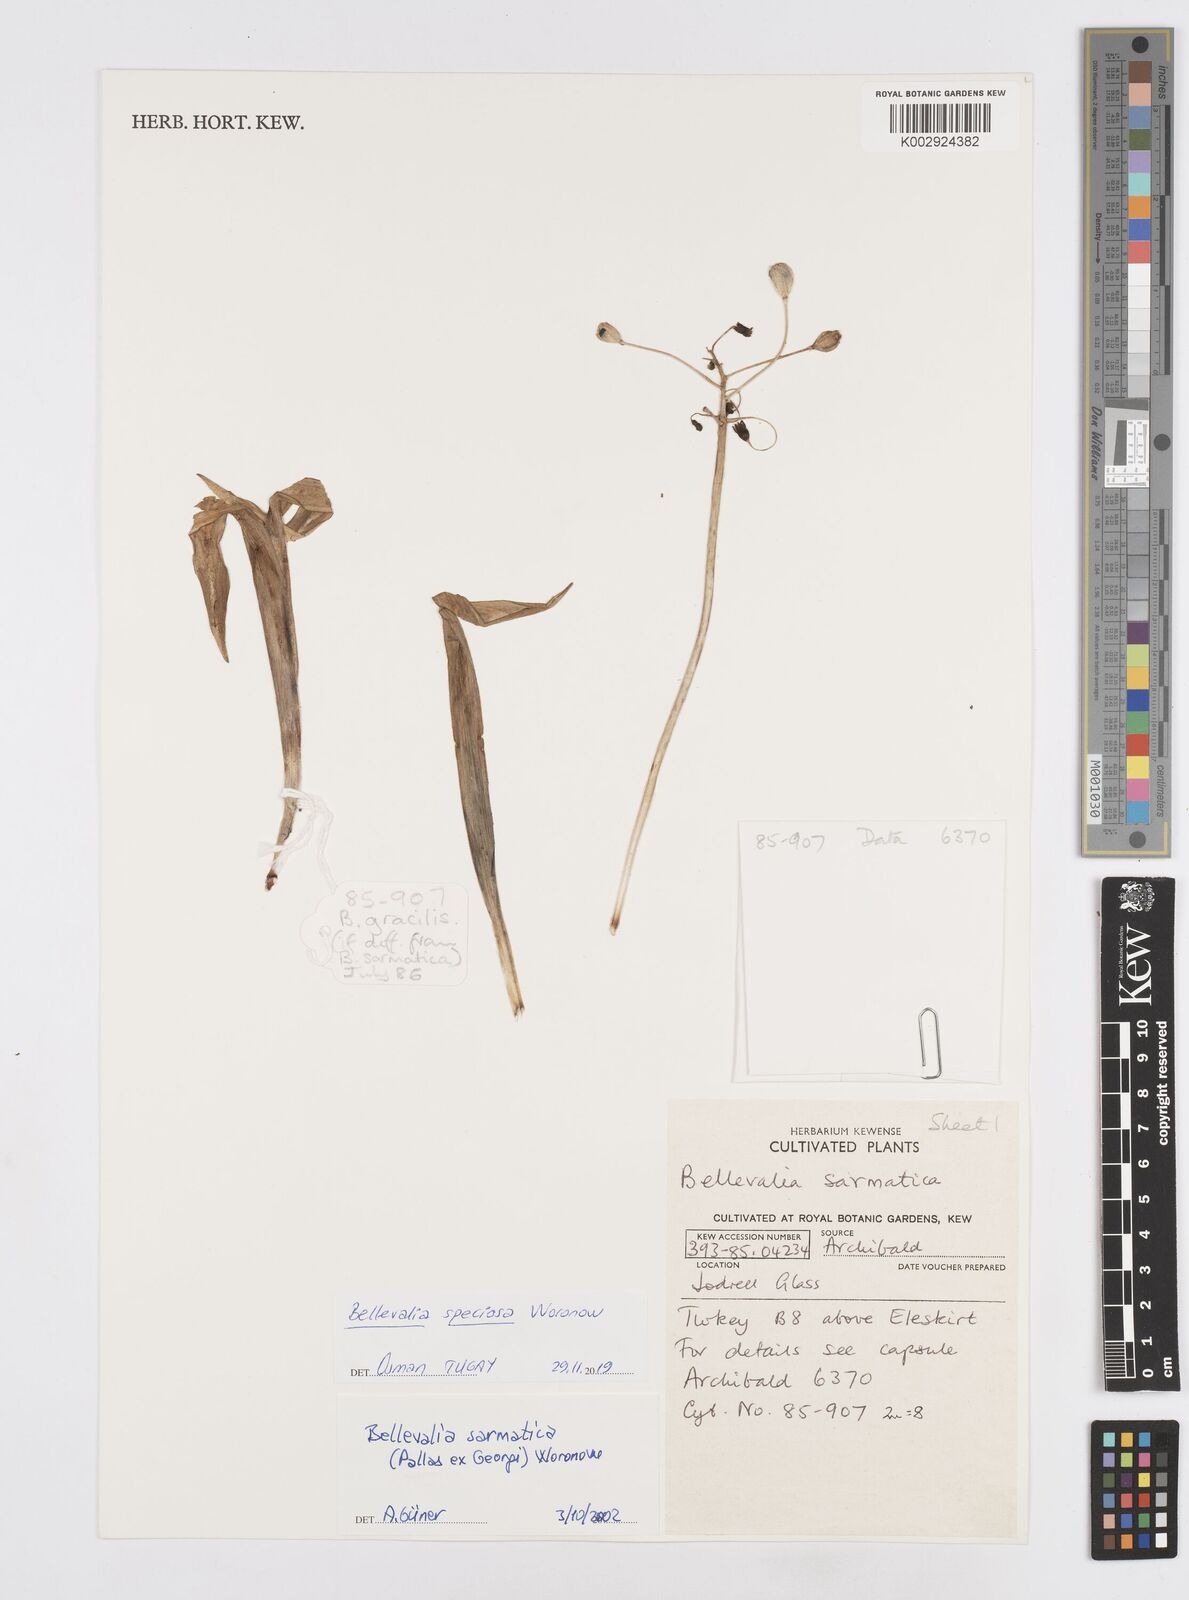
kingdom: Plantae
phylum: Tracheophyta
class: Liliopsida
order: Asparagales
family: Asparagaceae
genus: Bellevalia
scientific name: Bellevalia speciosa
